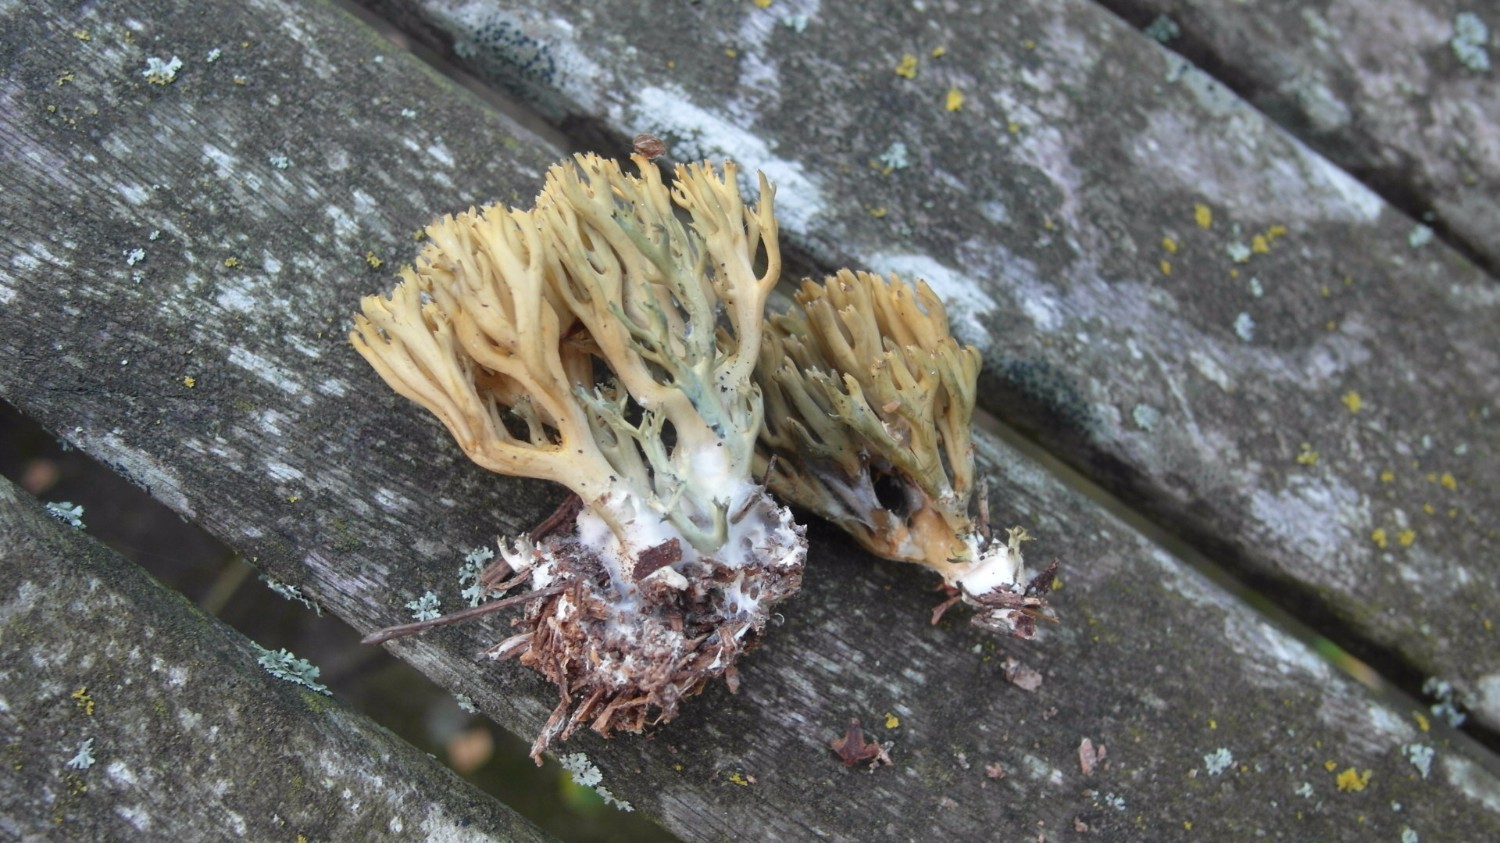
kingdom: Fungi
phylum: Basidiomycota
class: Agaricomycetes
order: Gomphales
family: Gomphaceae
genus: Phaeoclavulina
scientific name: Phaeoclavulina abietina
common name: gulgrøn koralsvamp
